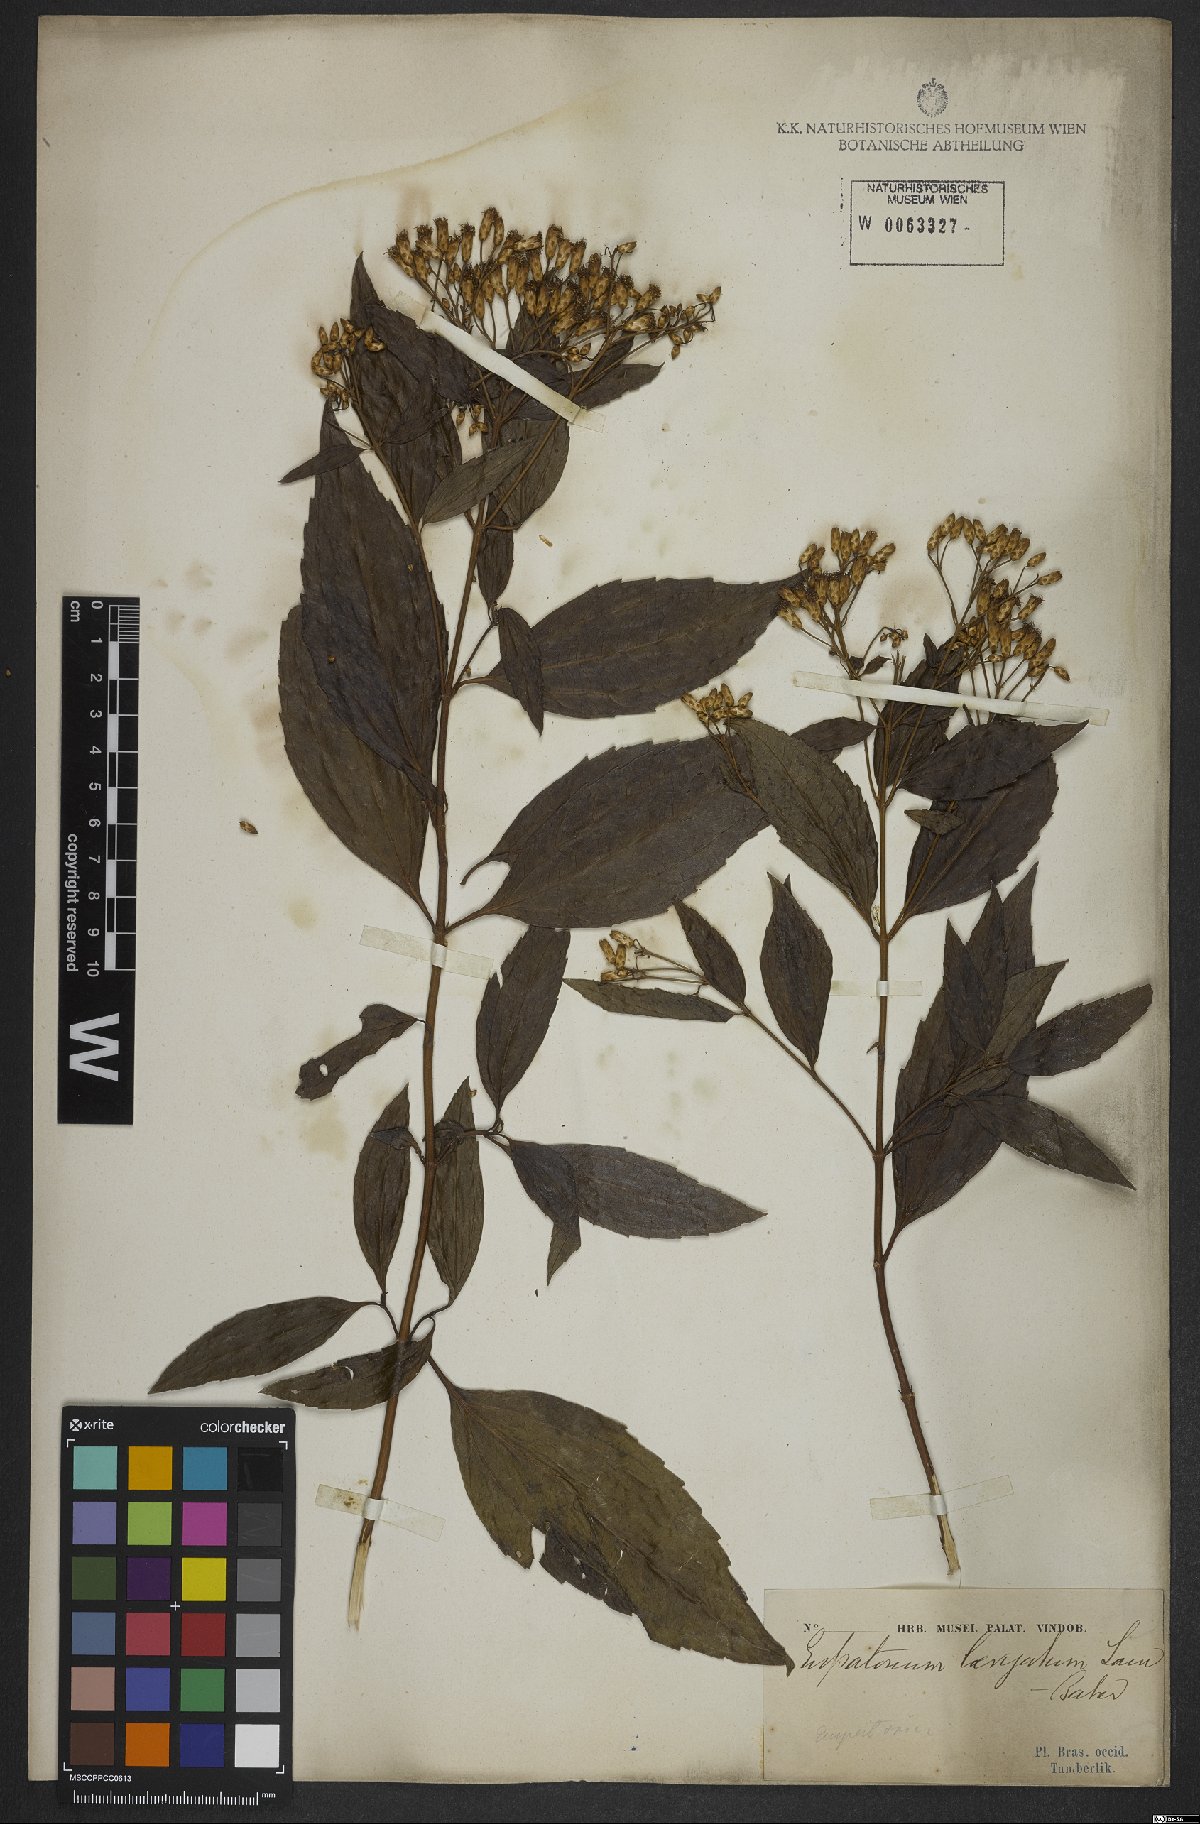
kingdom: Plantae
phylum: Tracheophyta
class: Magnoliopsida
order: Asterales
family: Asteraceae
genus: Eupatorium
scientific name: Eupatorium laevigatum
